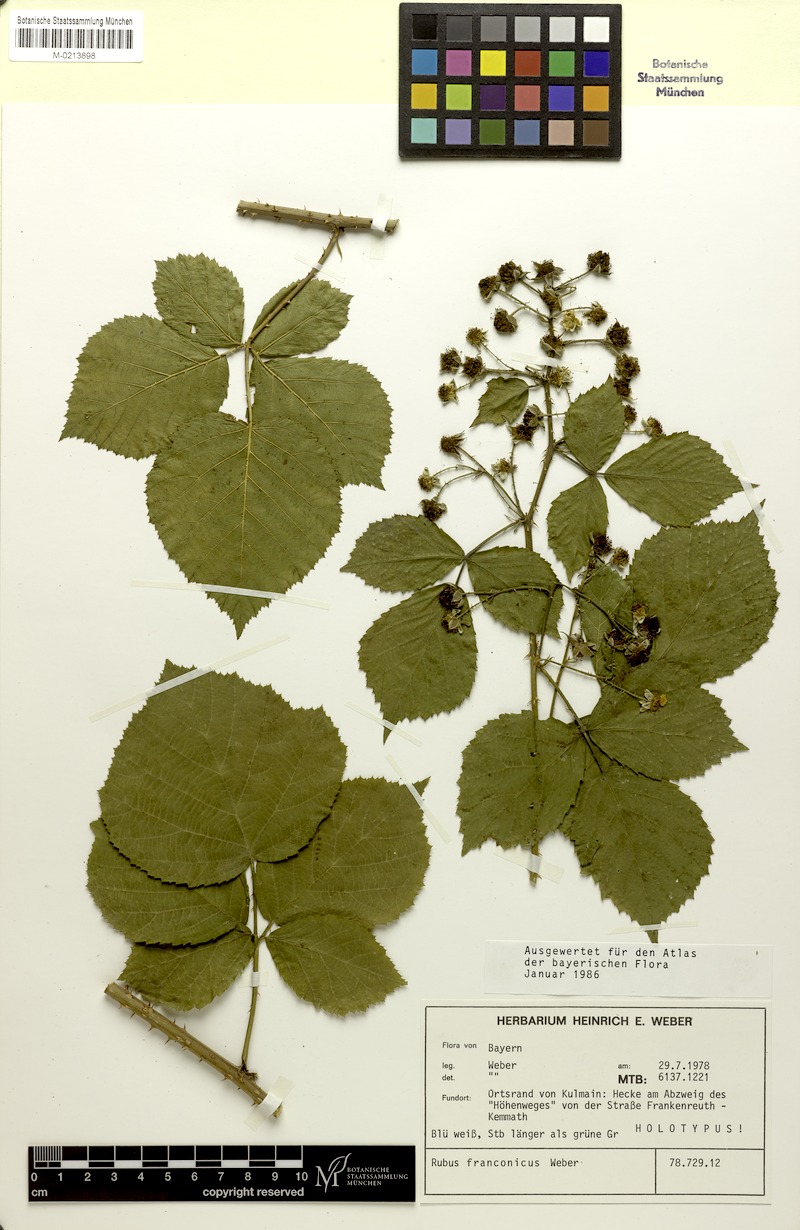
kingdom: Plantae
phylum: Tracheophyta
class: Magnoliopsida
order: Rosales
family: Rosaceae
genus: Rubus
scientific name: Rubus franconicus
